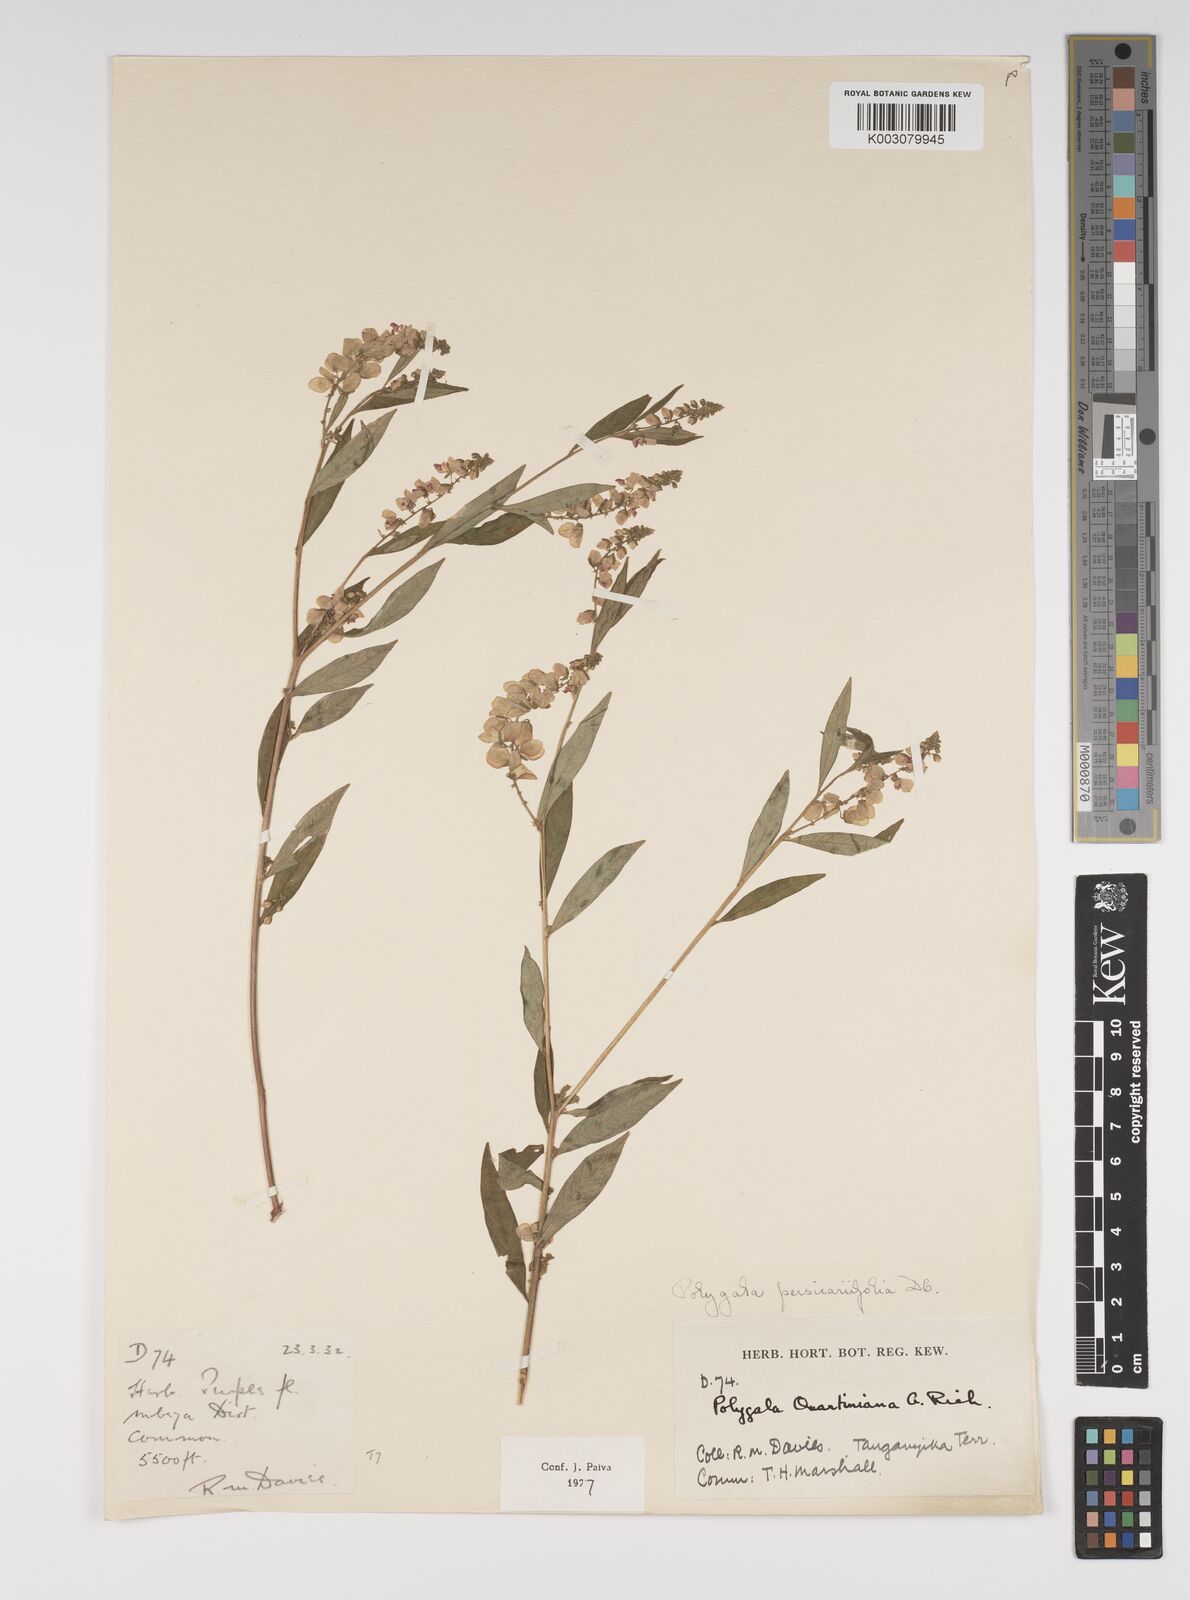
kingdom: Plantae
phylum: Tracheophyta
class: Magnoliopsida
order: Fabales
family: Polygalaceae
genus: Polygala
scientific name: Polygala persicariifolia
